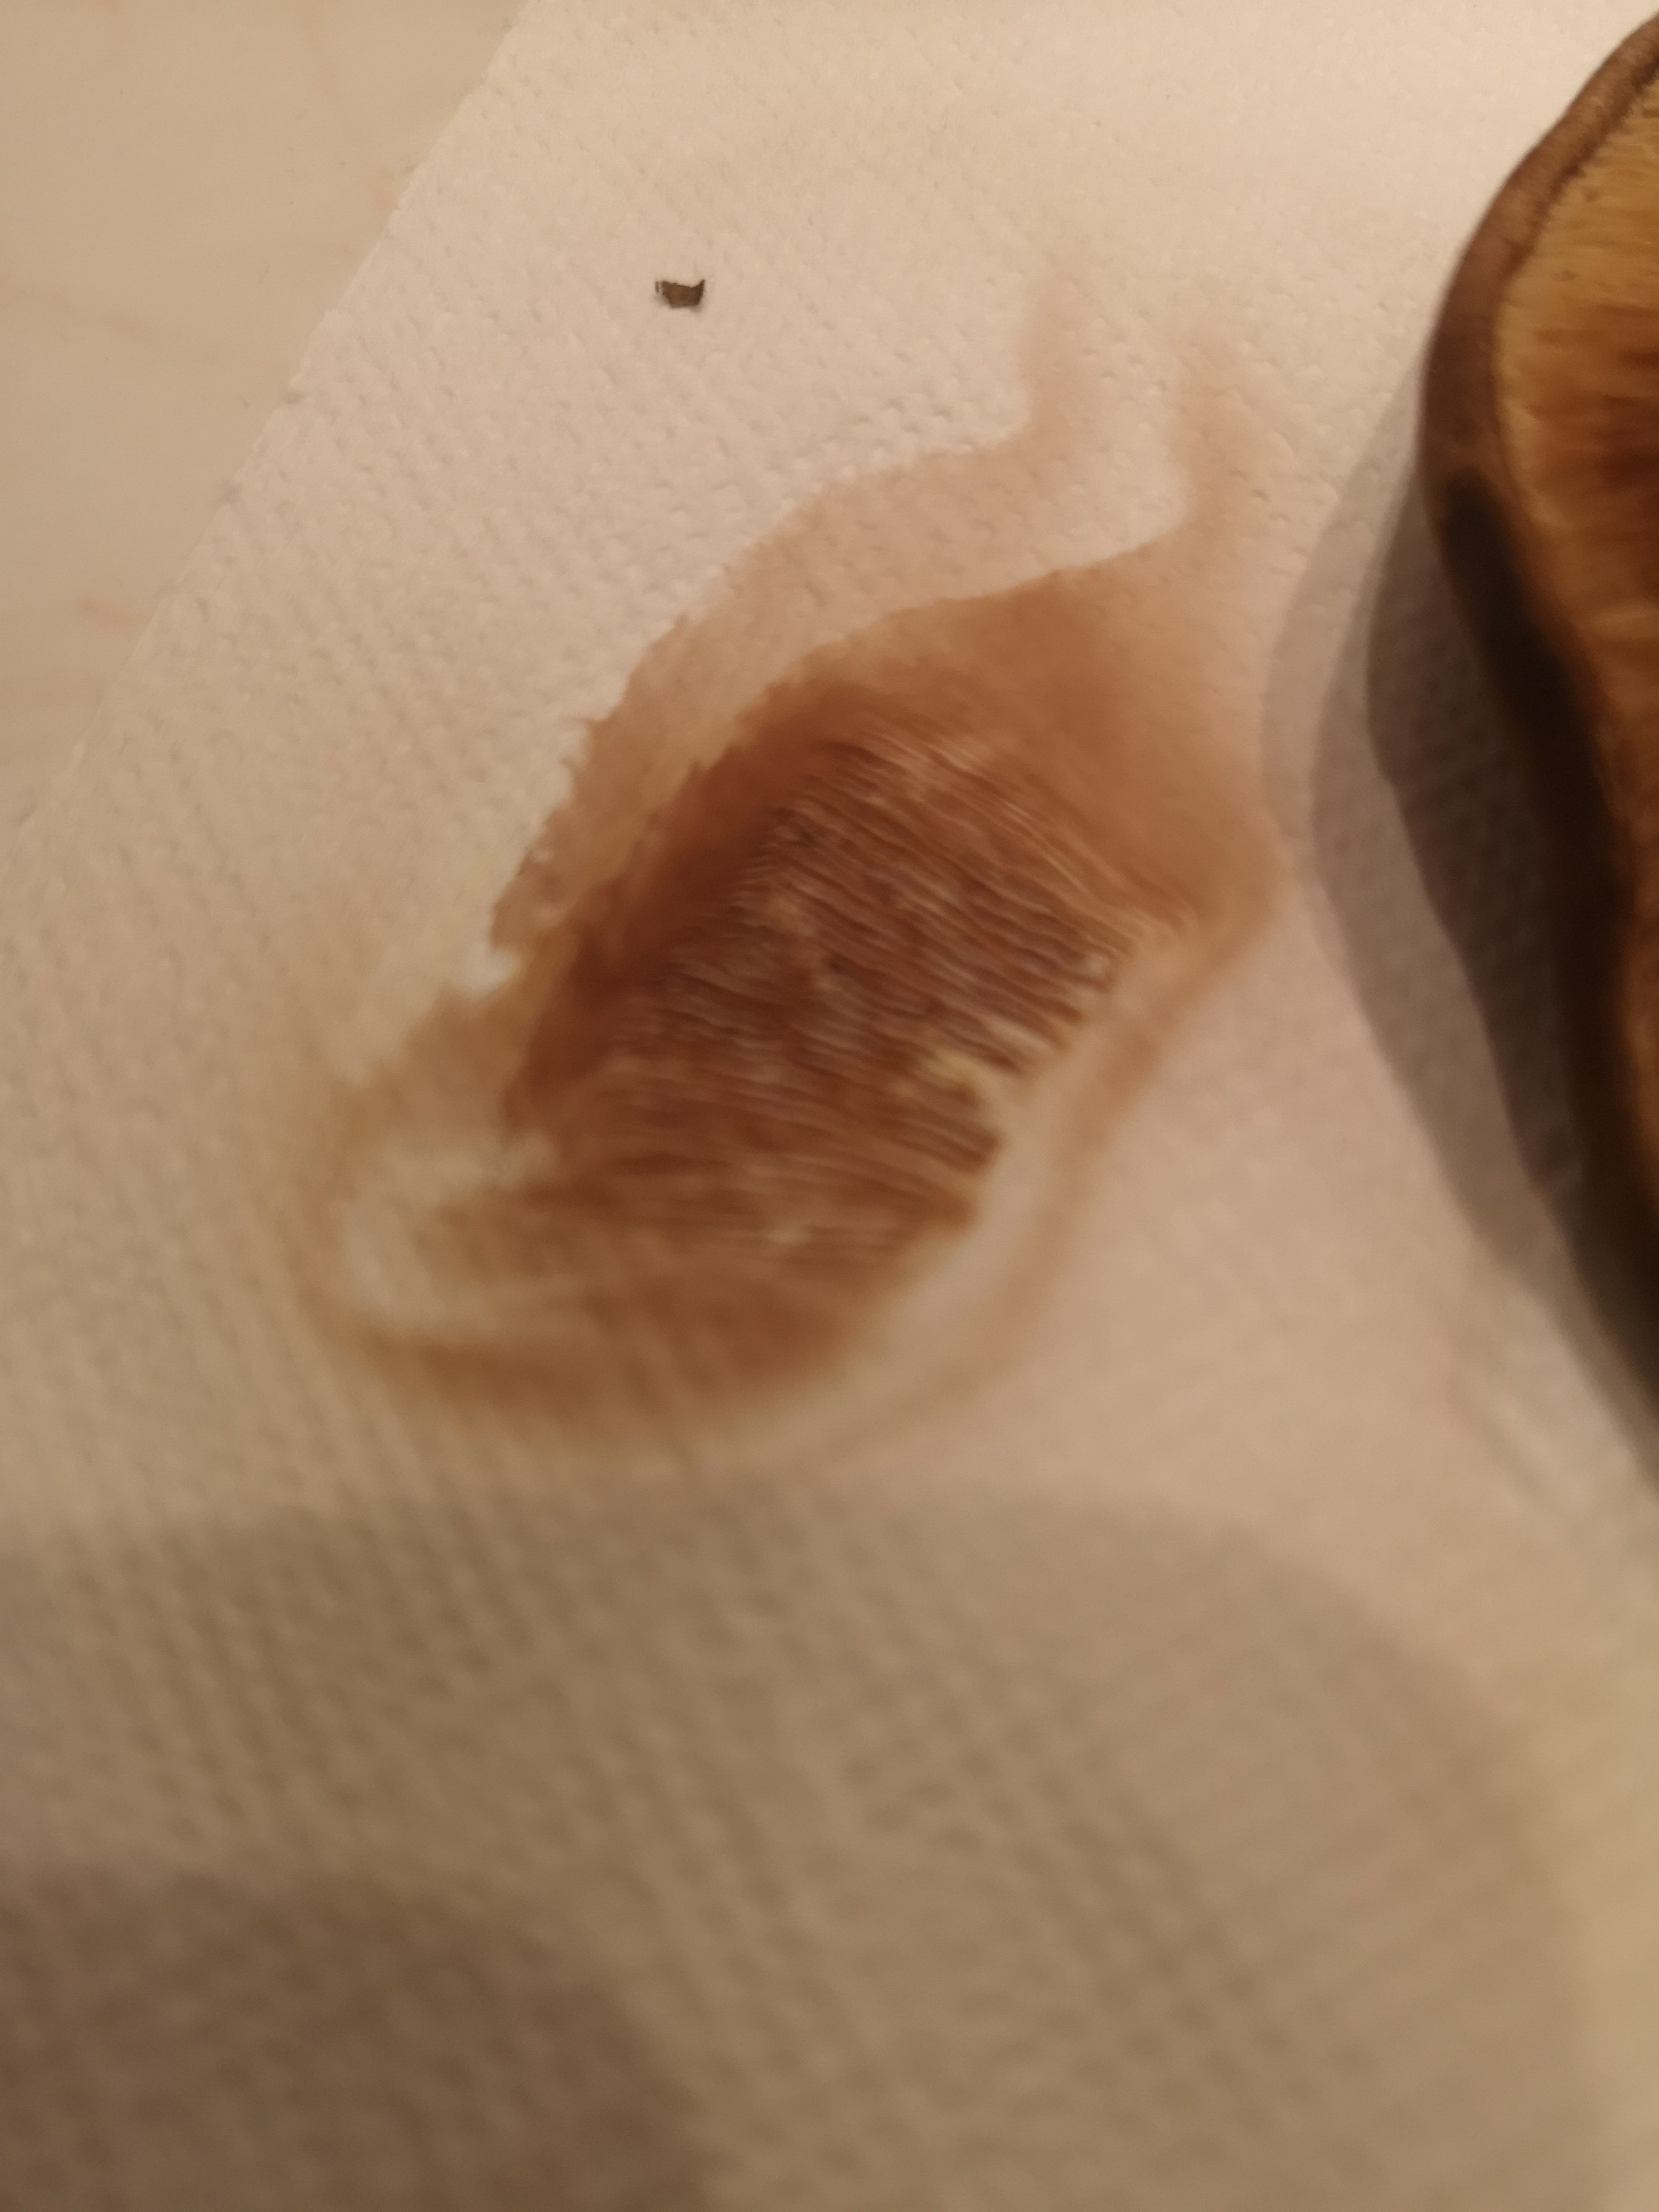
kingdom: Fungi
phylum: Basidiomycota
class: Agaricomycetes
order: Boletales
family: Paxillaceae
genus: Paxillus
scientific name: Paxillus involutus
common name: almindelig netbladhat
